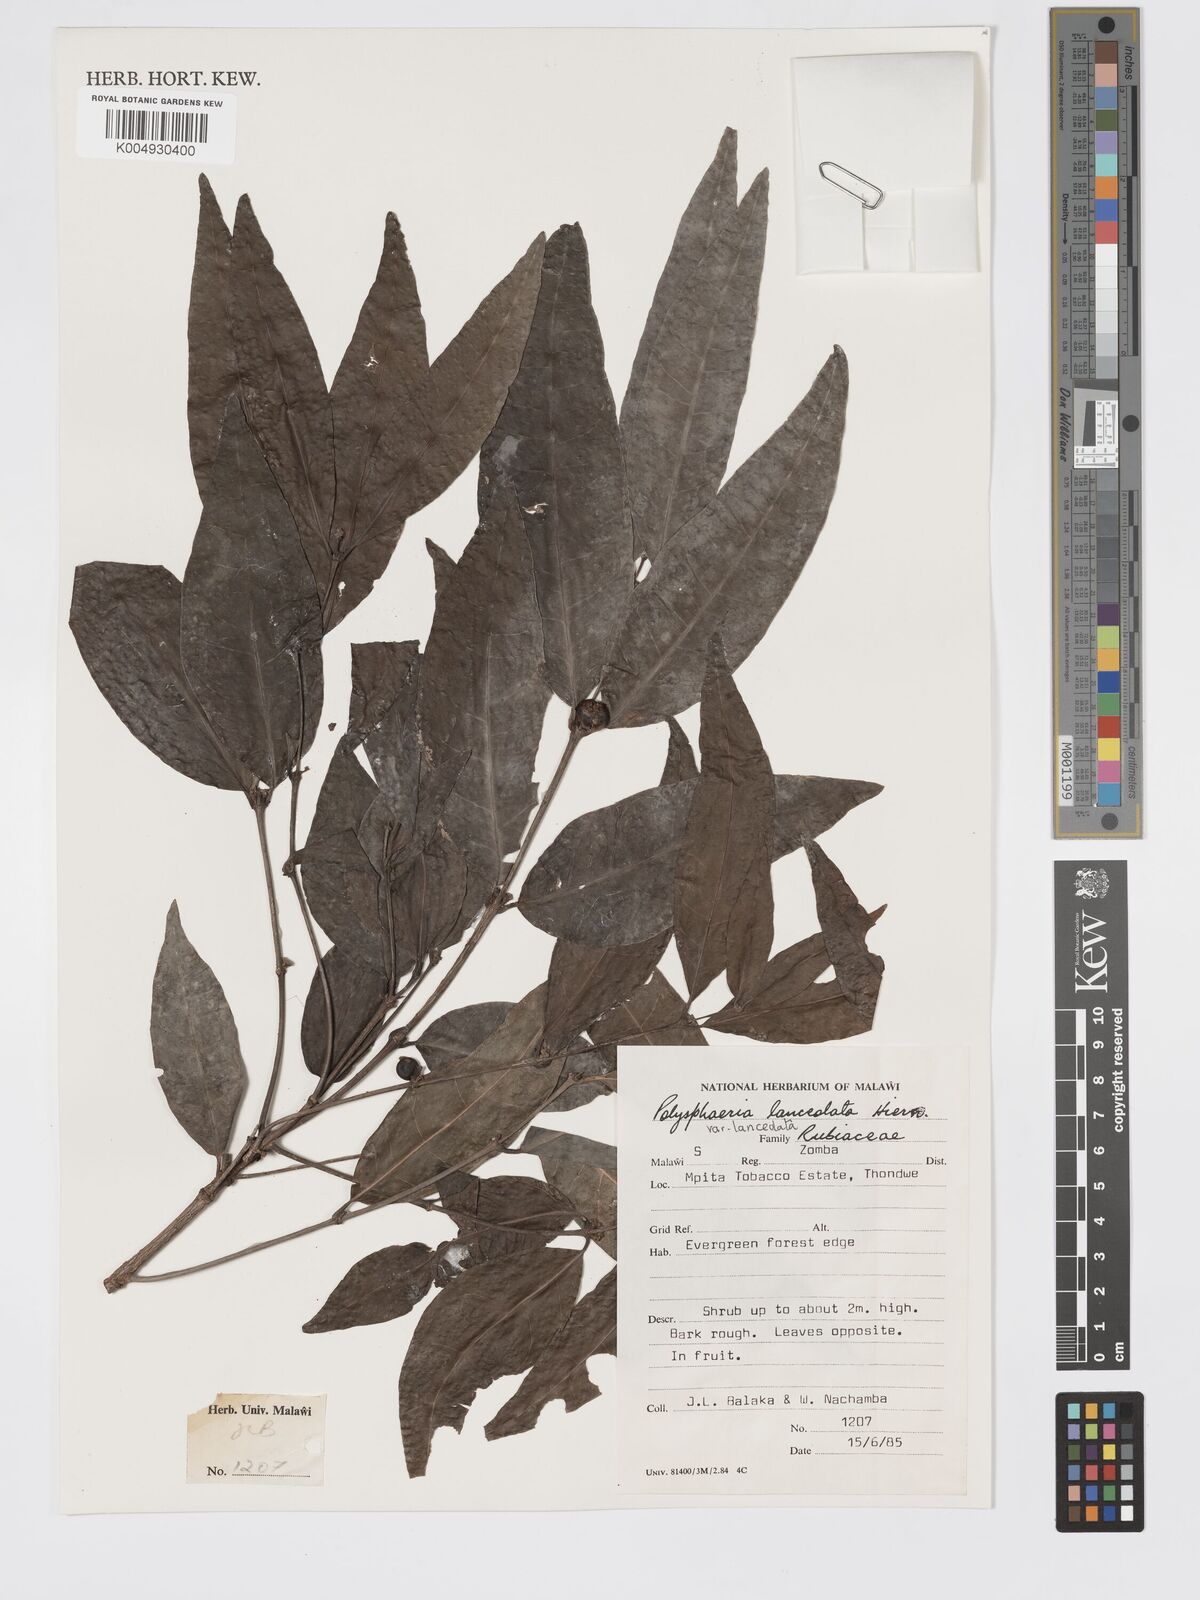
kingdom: Plantae
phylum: Tracheophyta
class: Magnoliopsida
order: Gentianales
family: Rubiaceae
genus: Polysphaeria
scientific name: Polysphaeria lanceolata
